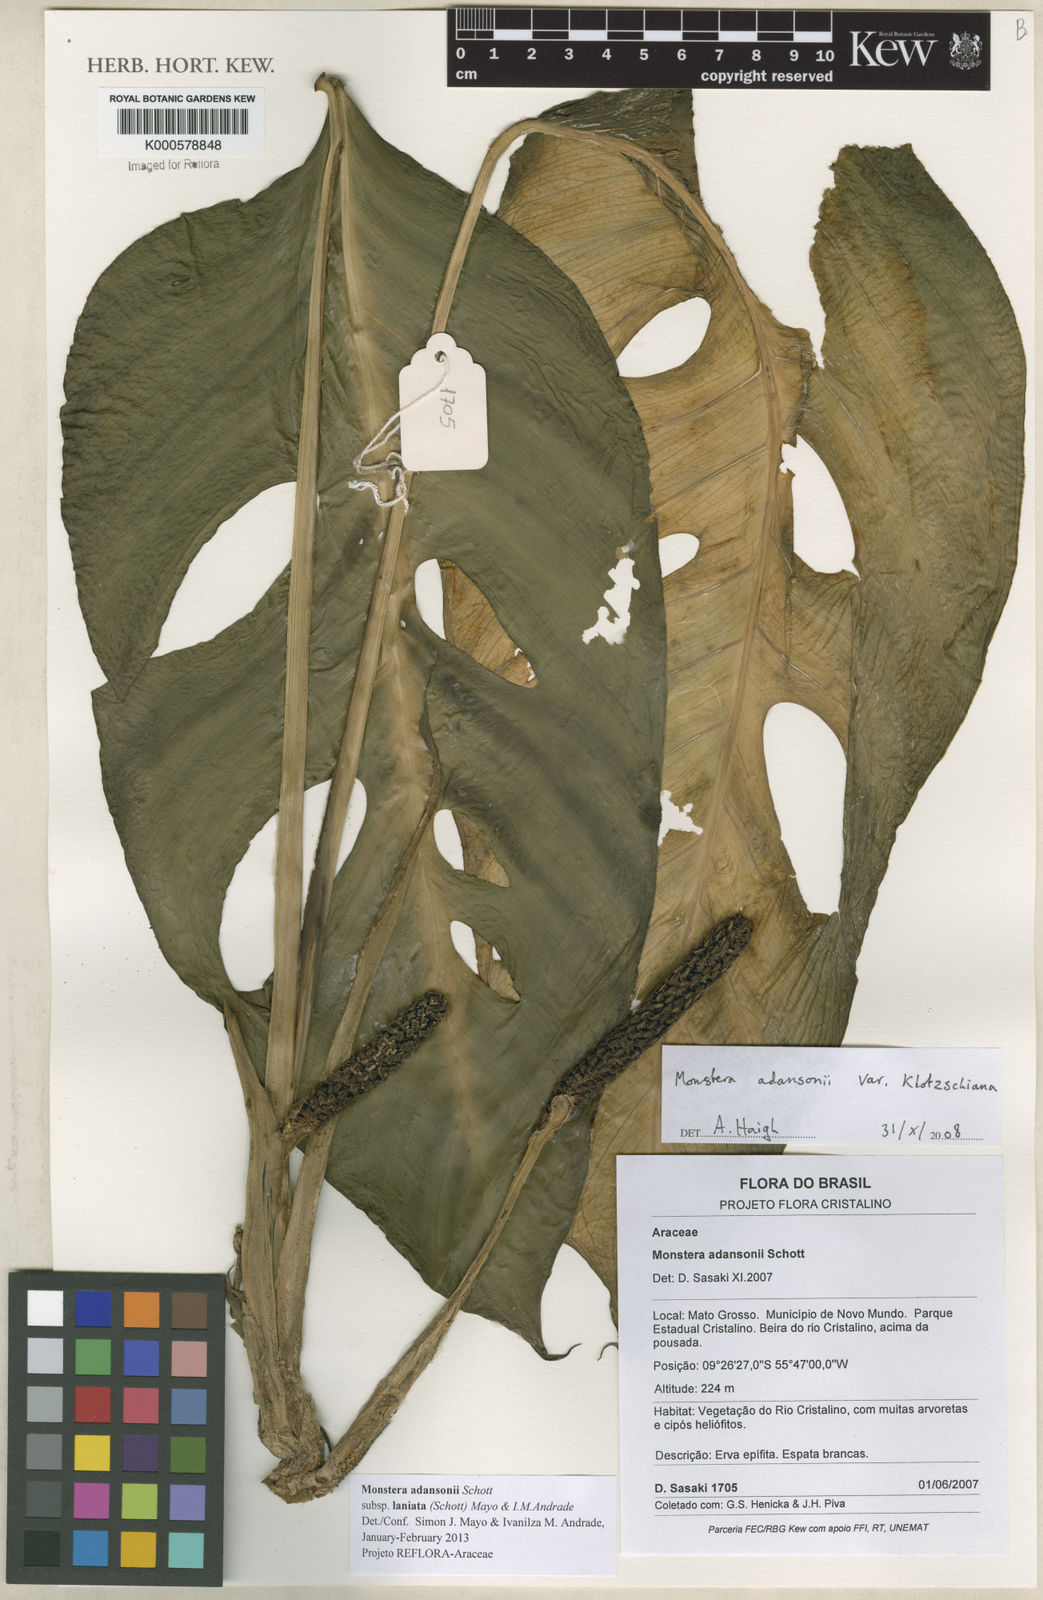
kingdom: Plantae
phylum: Tracheophyta
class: Liliopsida
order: Alismatales
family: Araceae
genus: Monstera
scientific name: Monstera adansonii
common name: Tarovine
